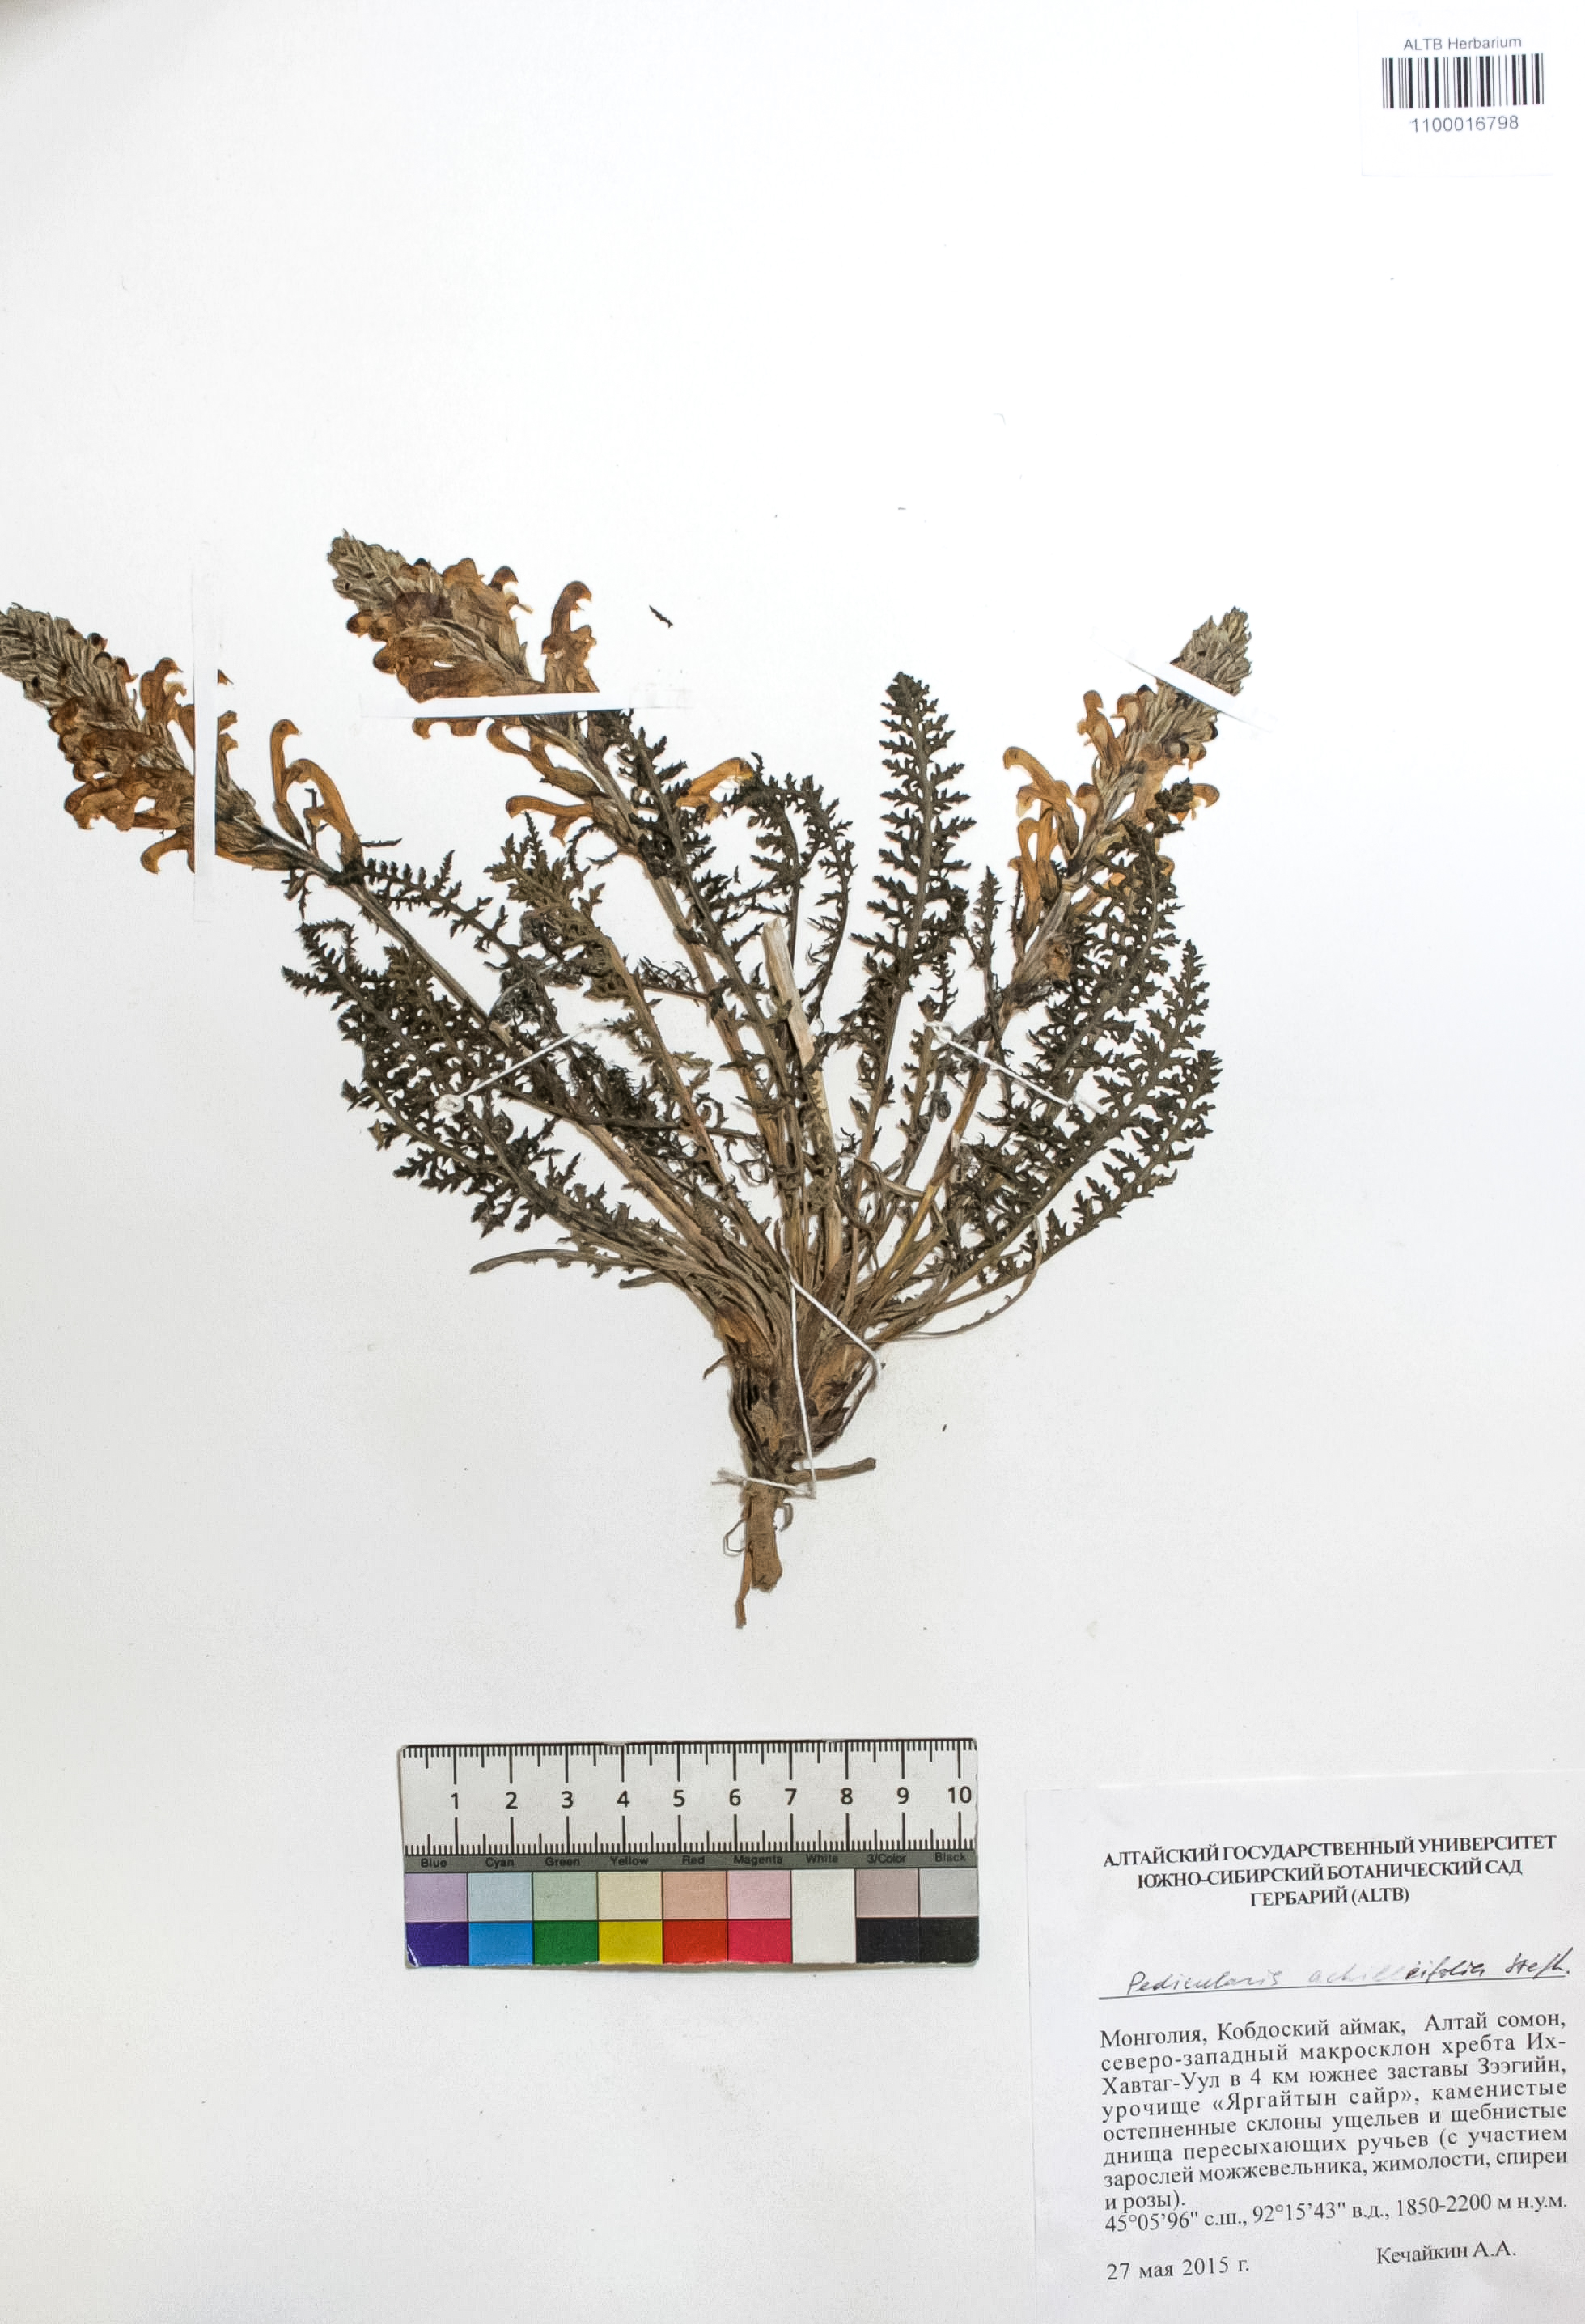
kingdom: Plantae
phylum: Tracheophyta
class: Magnoliopsida
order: Lamiales
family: Orobanchaceae
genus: Pedicularis
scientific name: Pedicularis achilleifolia
